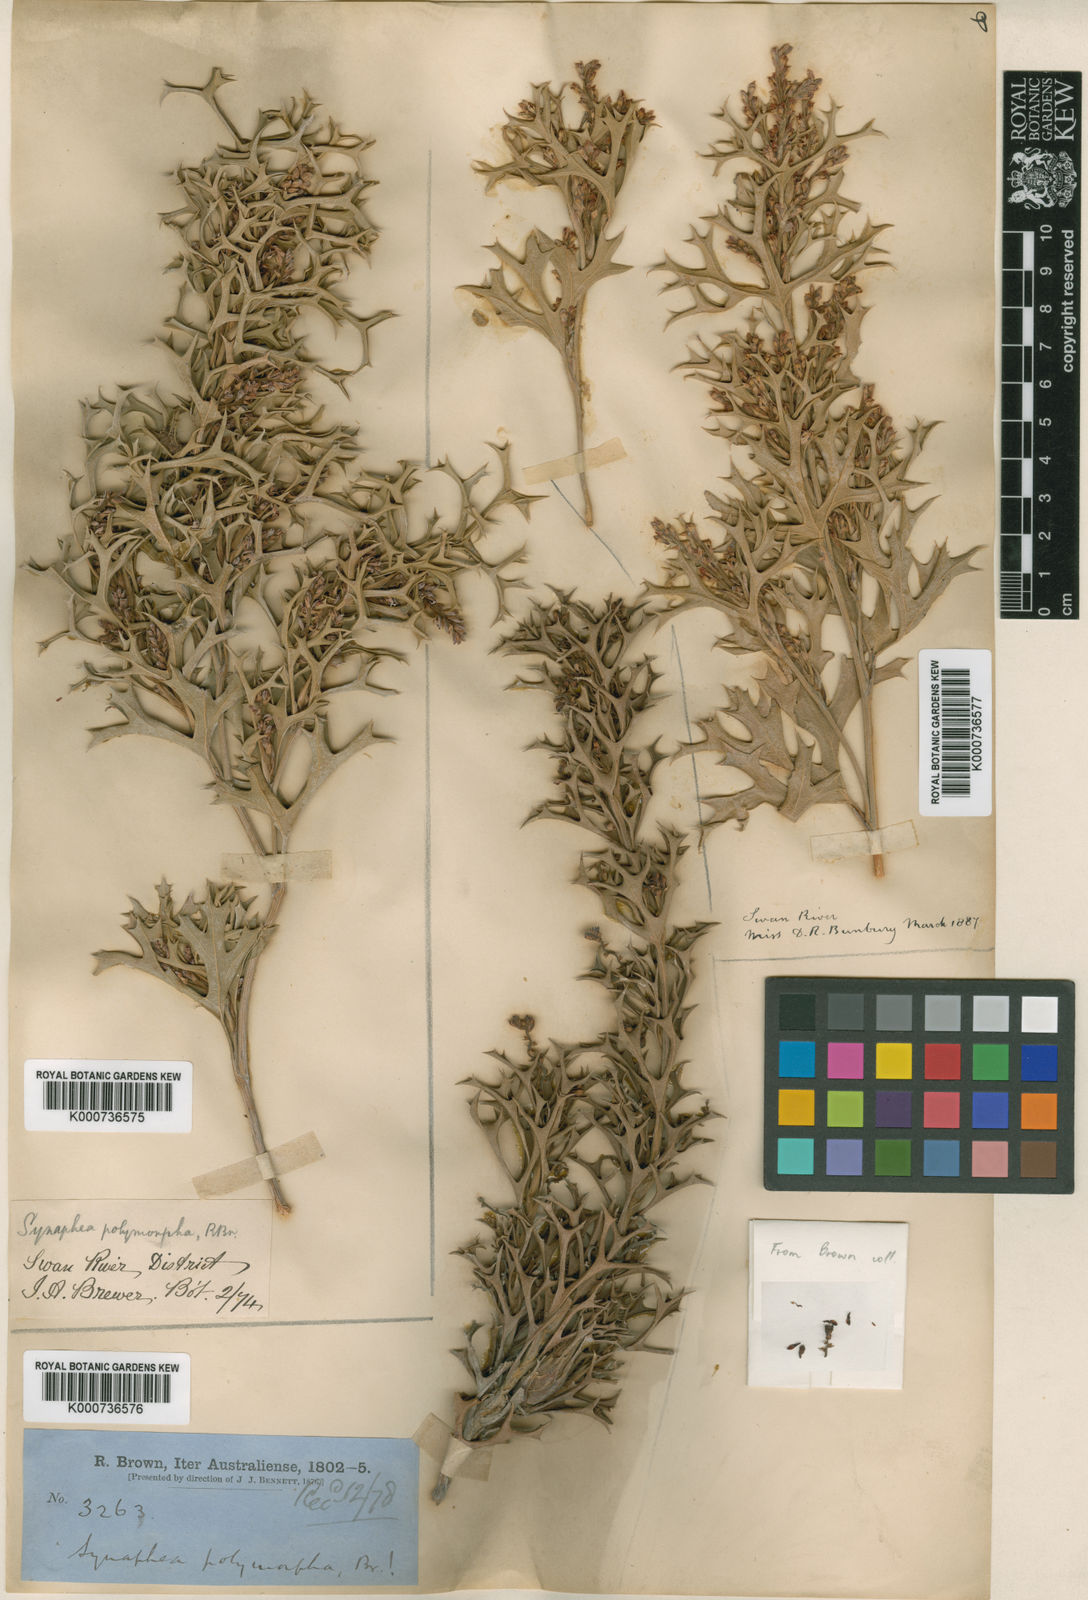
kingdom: Plantae
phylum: Tracheophyta
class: Magnoliopsida
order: Proteales
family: Proteaceae
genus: Synaphea
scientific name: Synaphea polymorpha
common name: Albany synaphea
